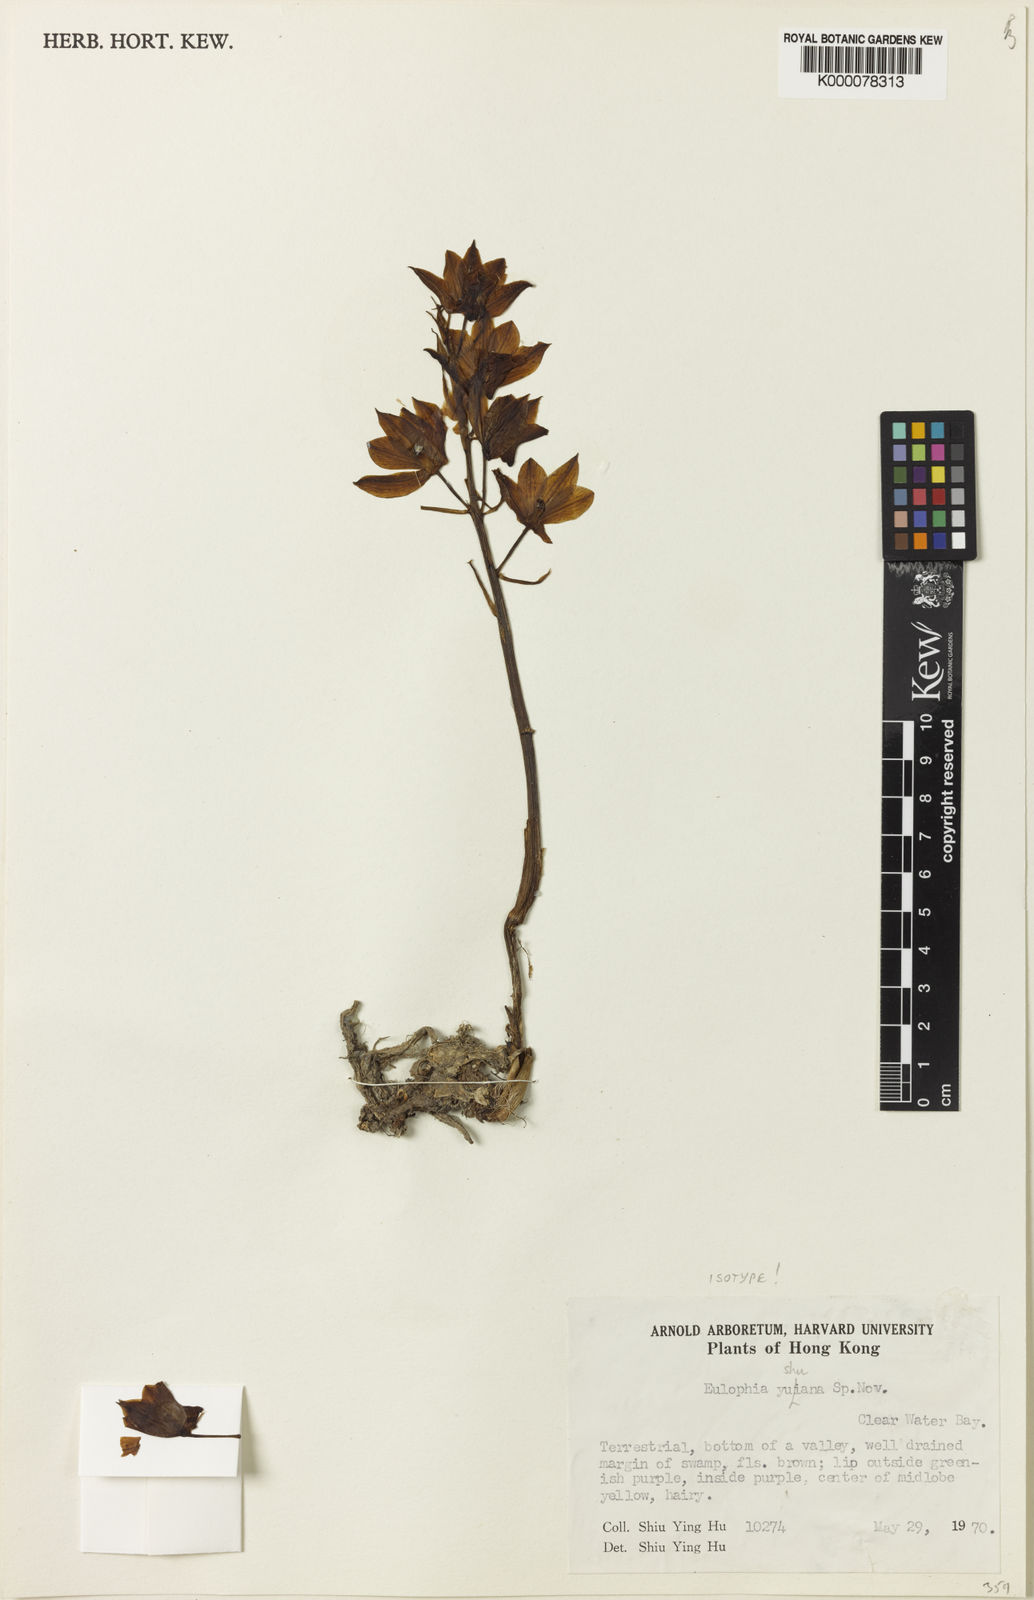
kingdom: Plantae
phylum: Tracheophyta
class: Liliopsida
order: Asparagales
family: Orchidaceae
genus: Eulophia
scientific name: Eulophia zollingeri
